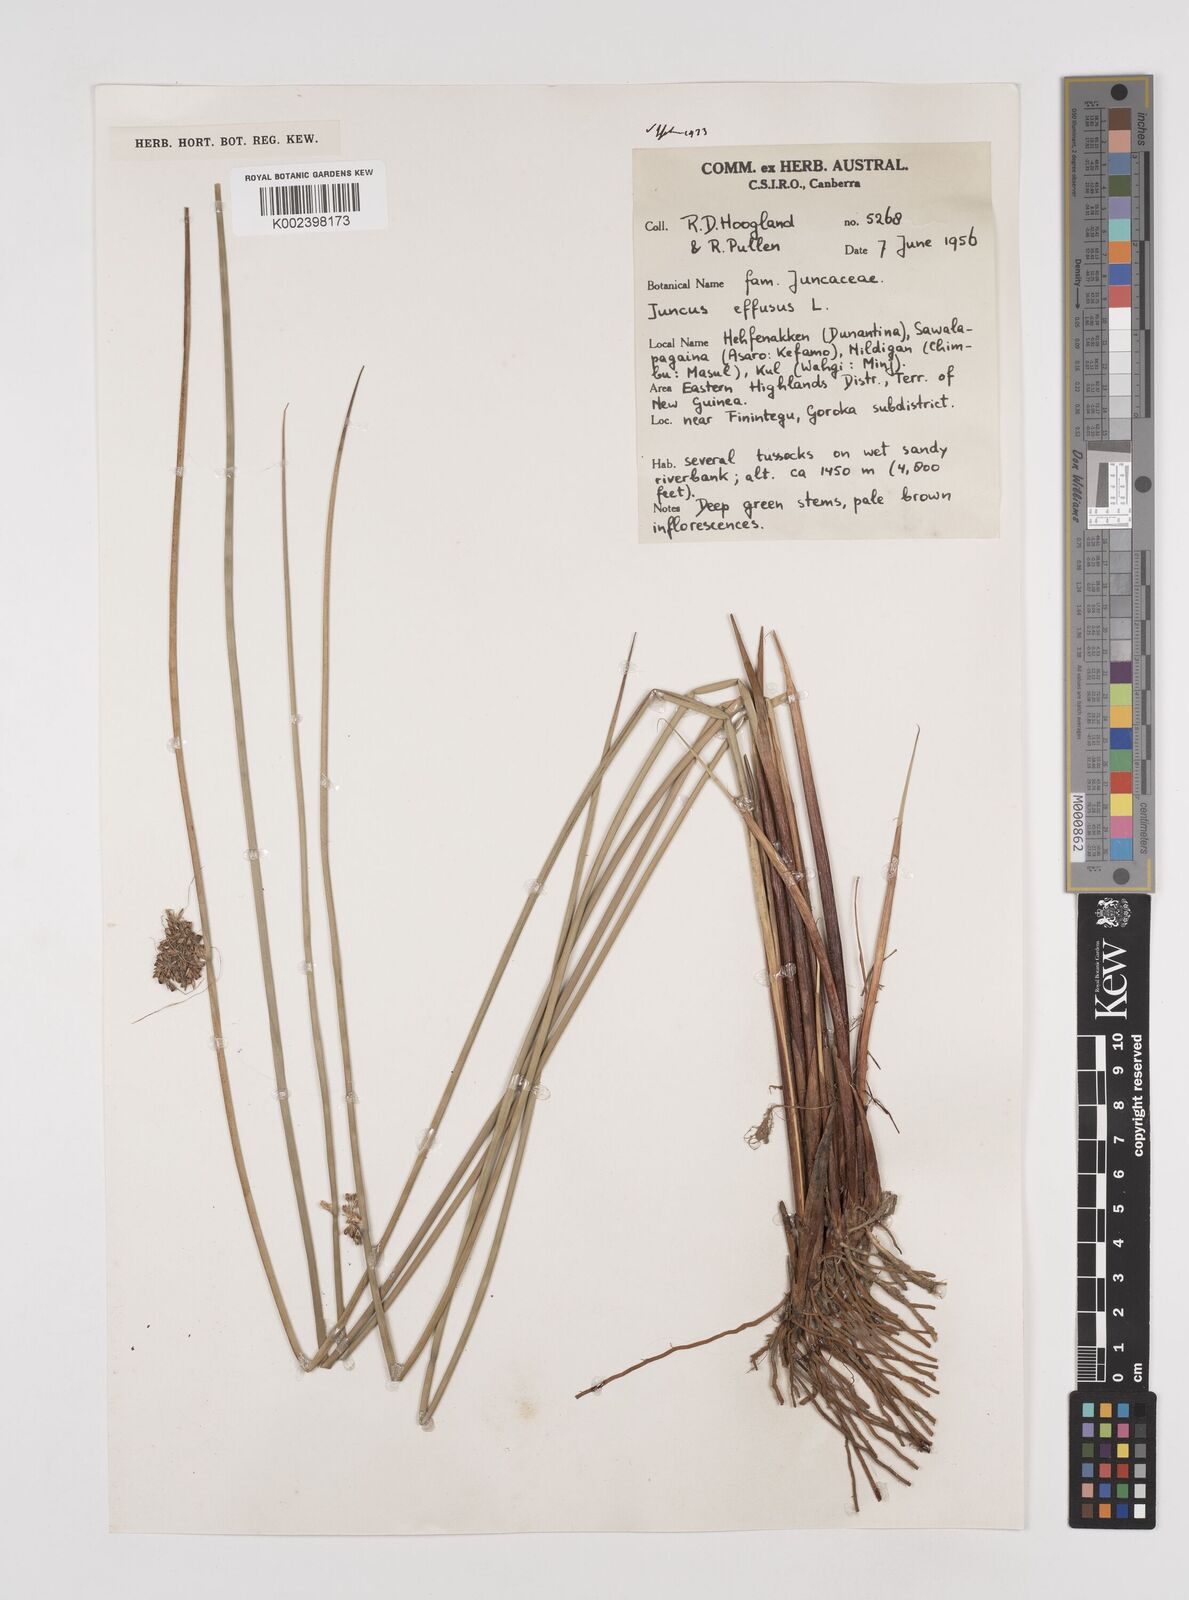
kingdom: Plantae
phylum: Tracheophyta
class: Liliopsida
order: Poales
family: Juncaceae
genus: Juncus
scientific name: Juncus effusus
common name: Soft rush
